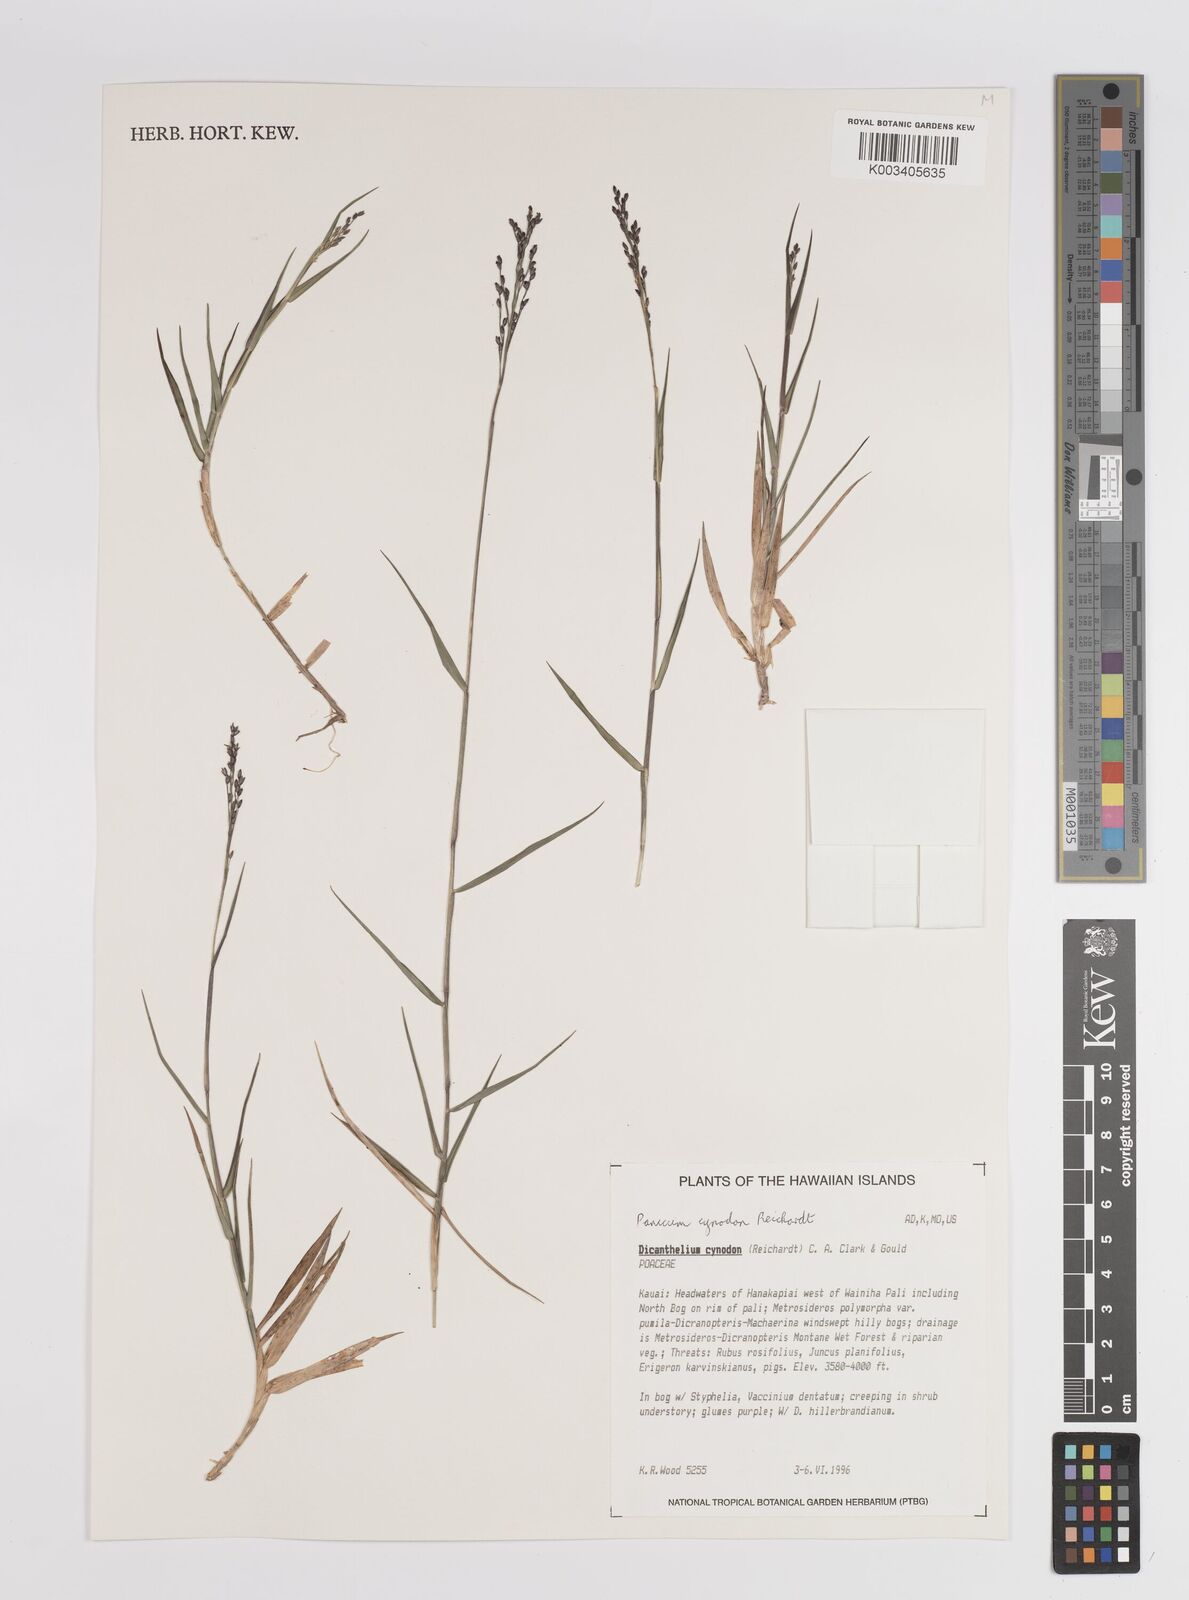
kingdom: Plantae
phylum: Tracheophyta
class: Liliopsida
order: Poales
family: Poaceae
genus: Dichanthelium
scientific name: Dichanthelium cynodon
